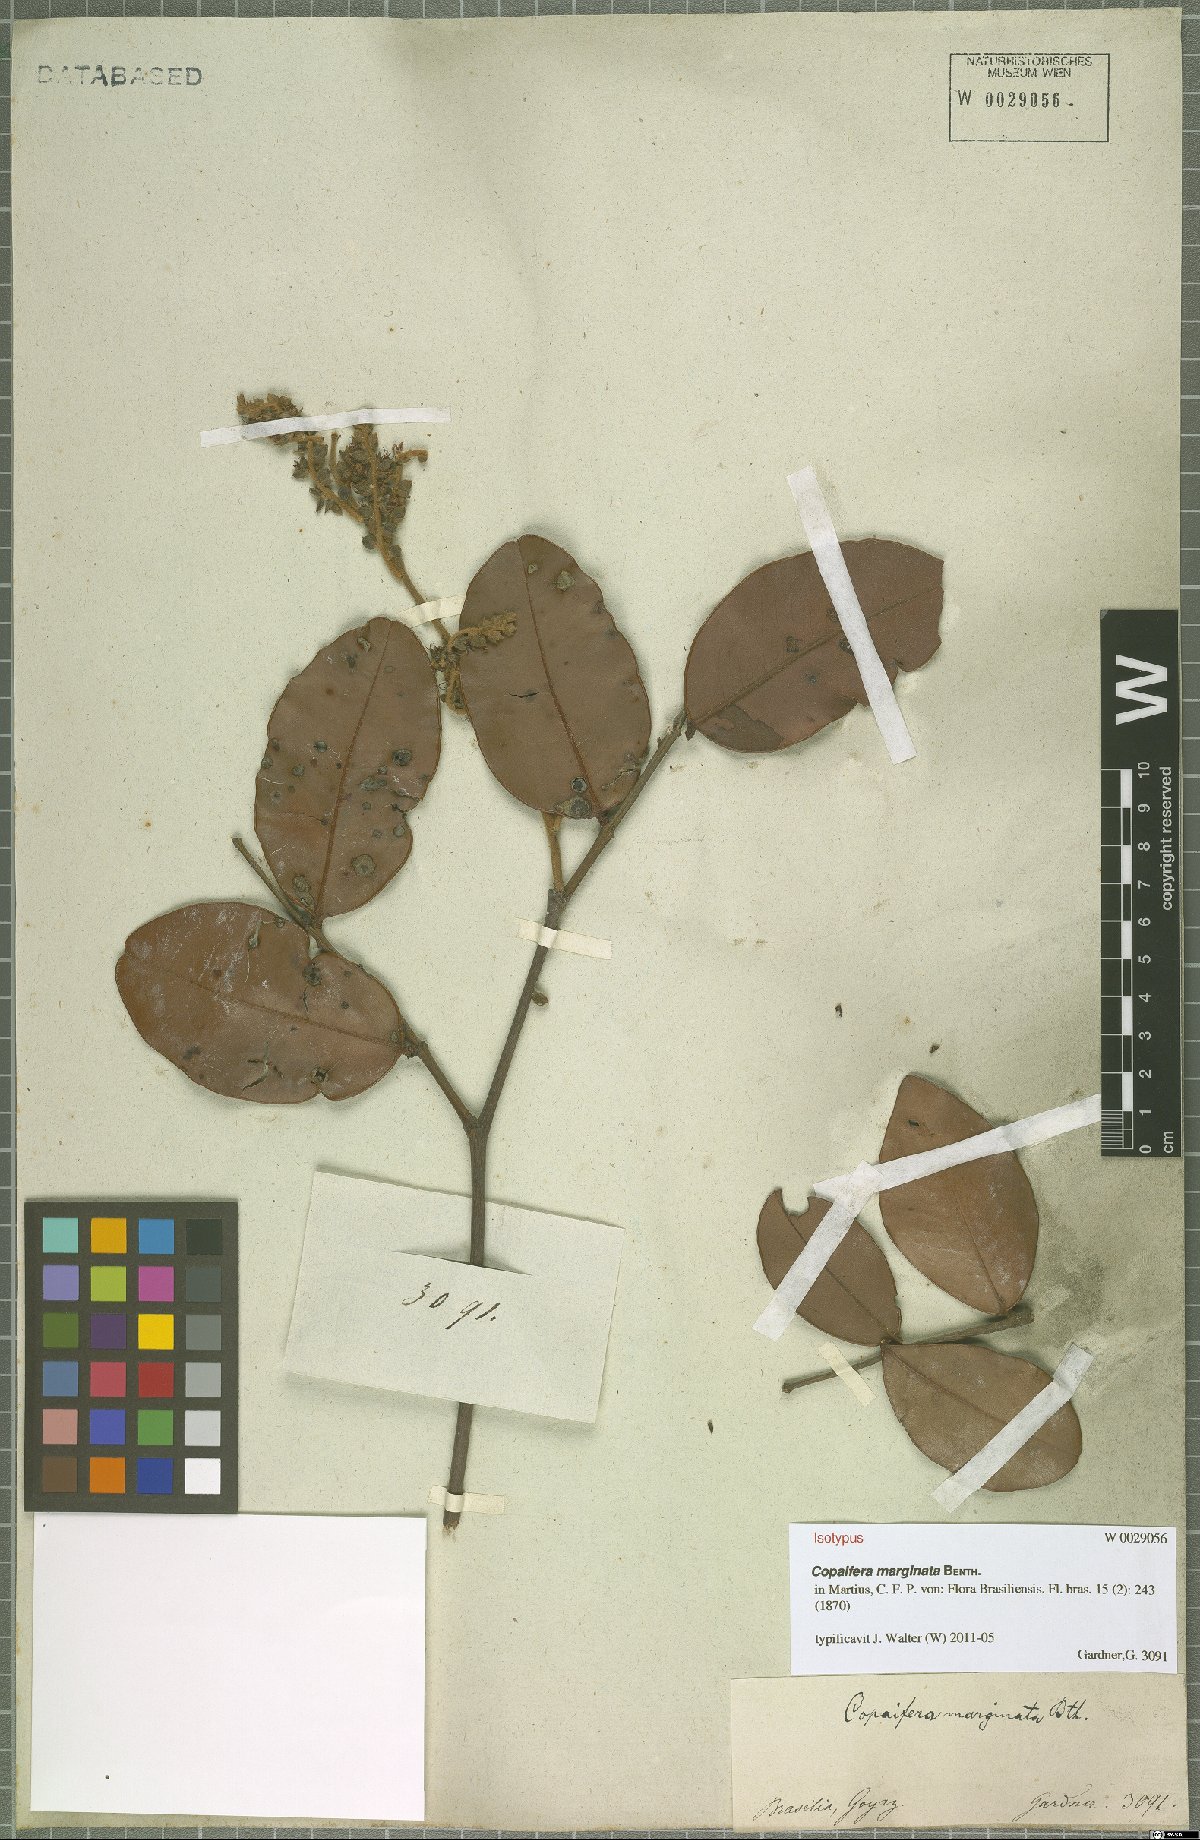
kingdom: Plantae
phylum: Tracheophyta
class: Magnoliopsida
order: Fabales
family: Fabaceae
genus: Copaifera
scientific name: Copaifera marginata
